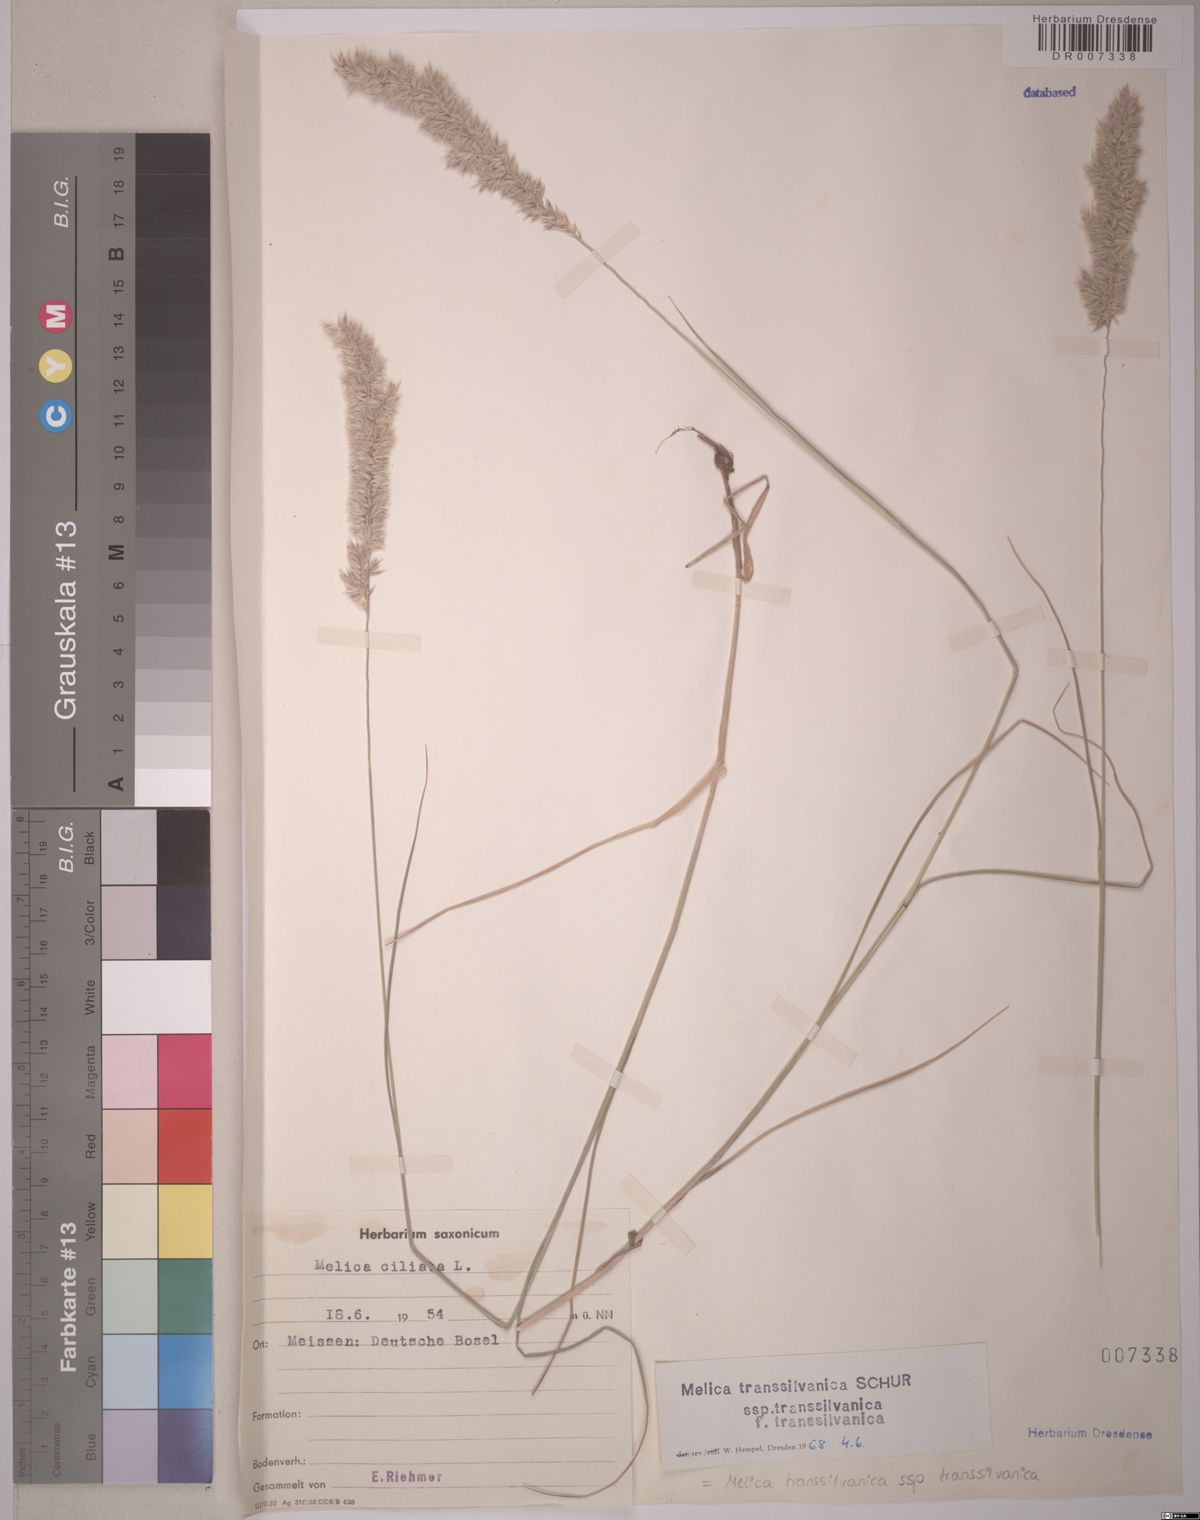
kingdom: Plantae
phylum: Tracheophyta
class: Liliopsida
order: Poales
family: Poaceae
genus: Melica
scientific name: Melica transsilvanica
